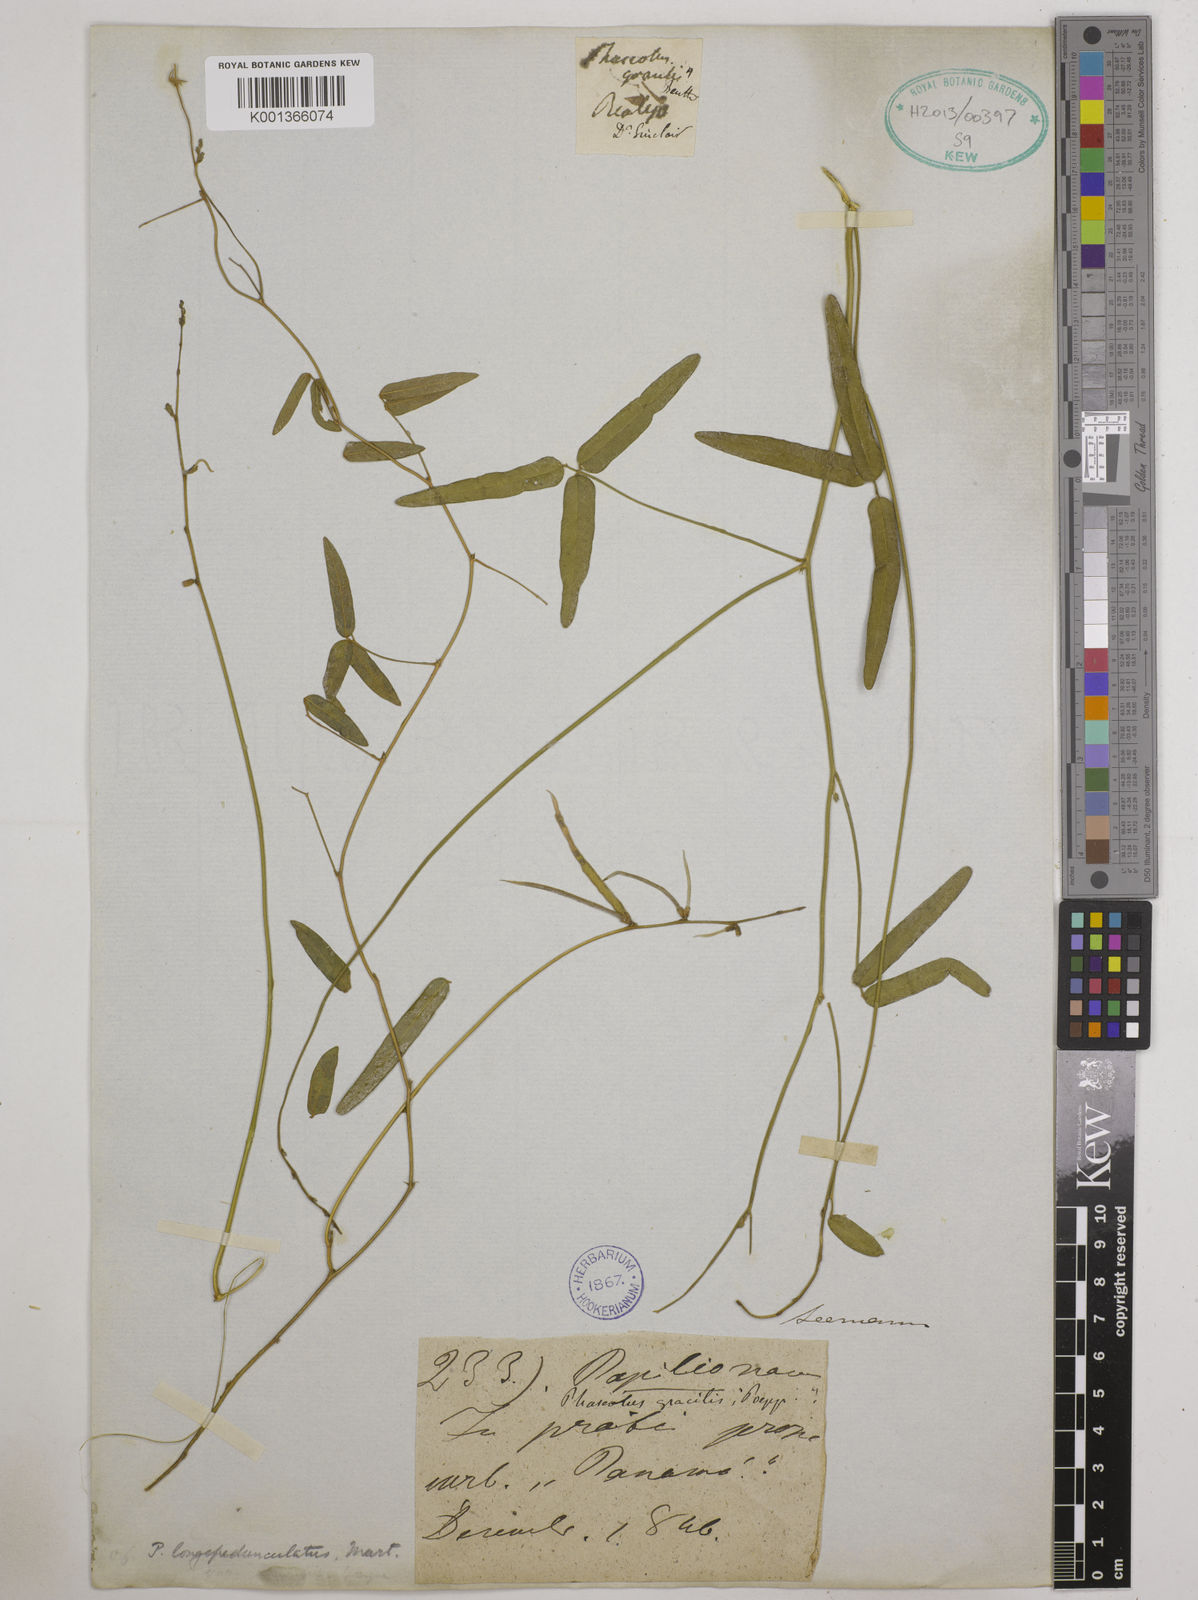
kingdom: Plantae
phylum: Tracheophyta
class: Magnoliopsida
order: Fabales
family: Fabaceae
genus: Macroptilium
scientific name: Macroptilium longepedunculatum
